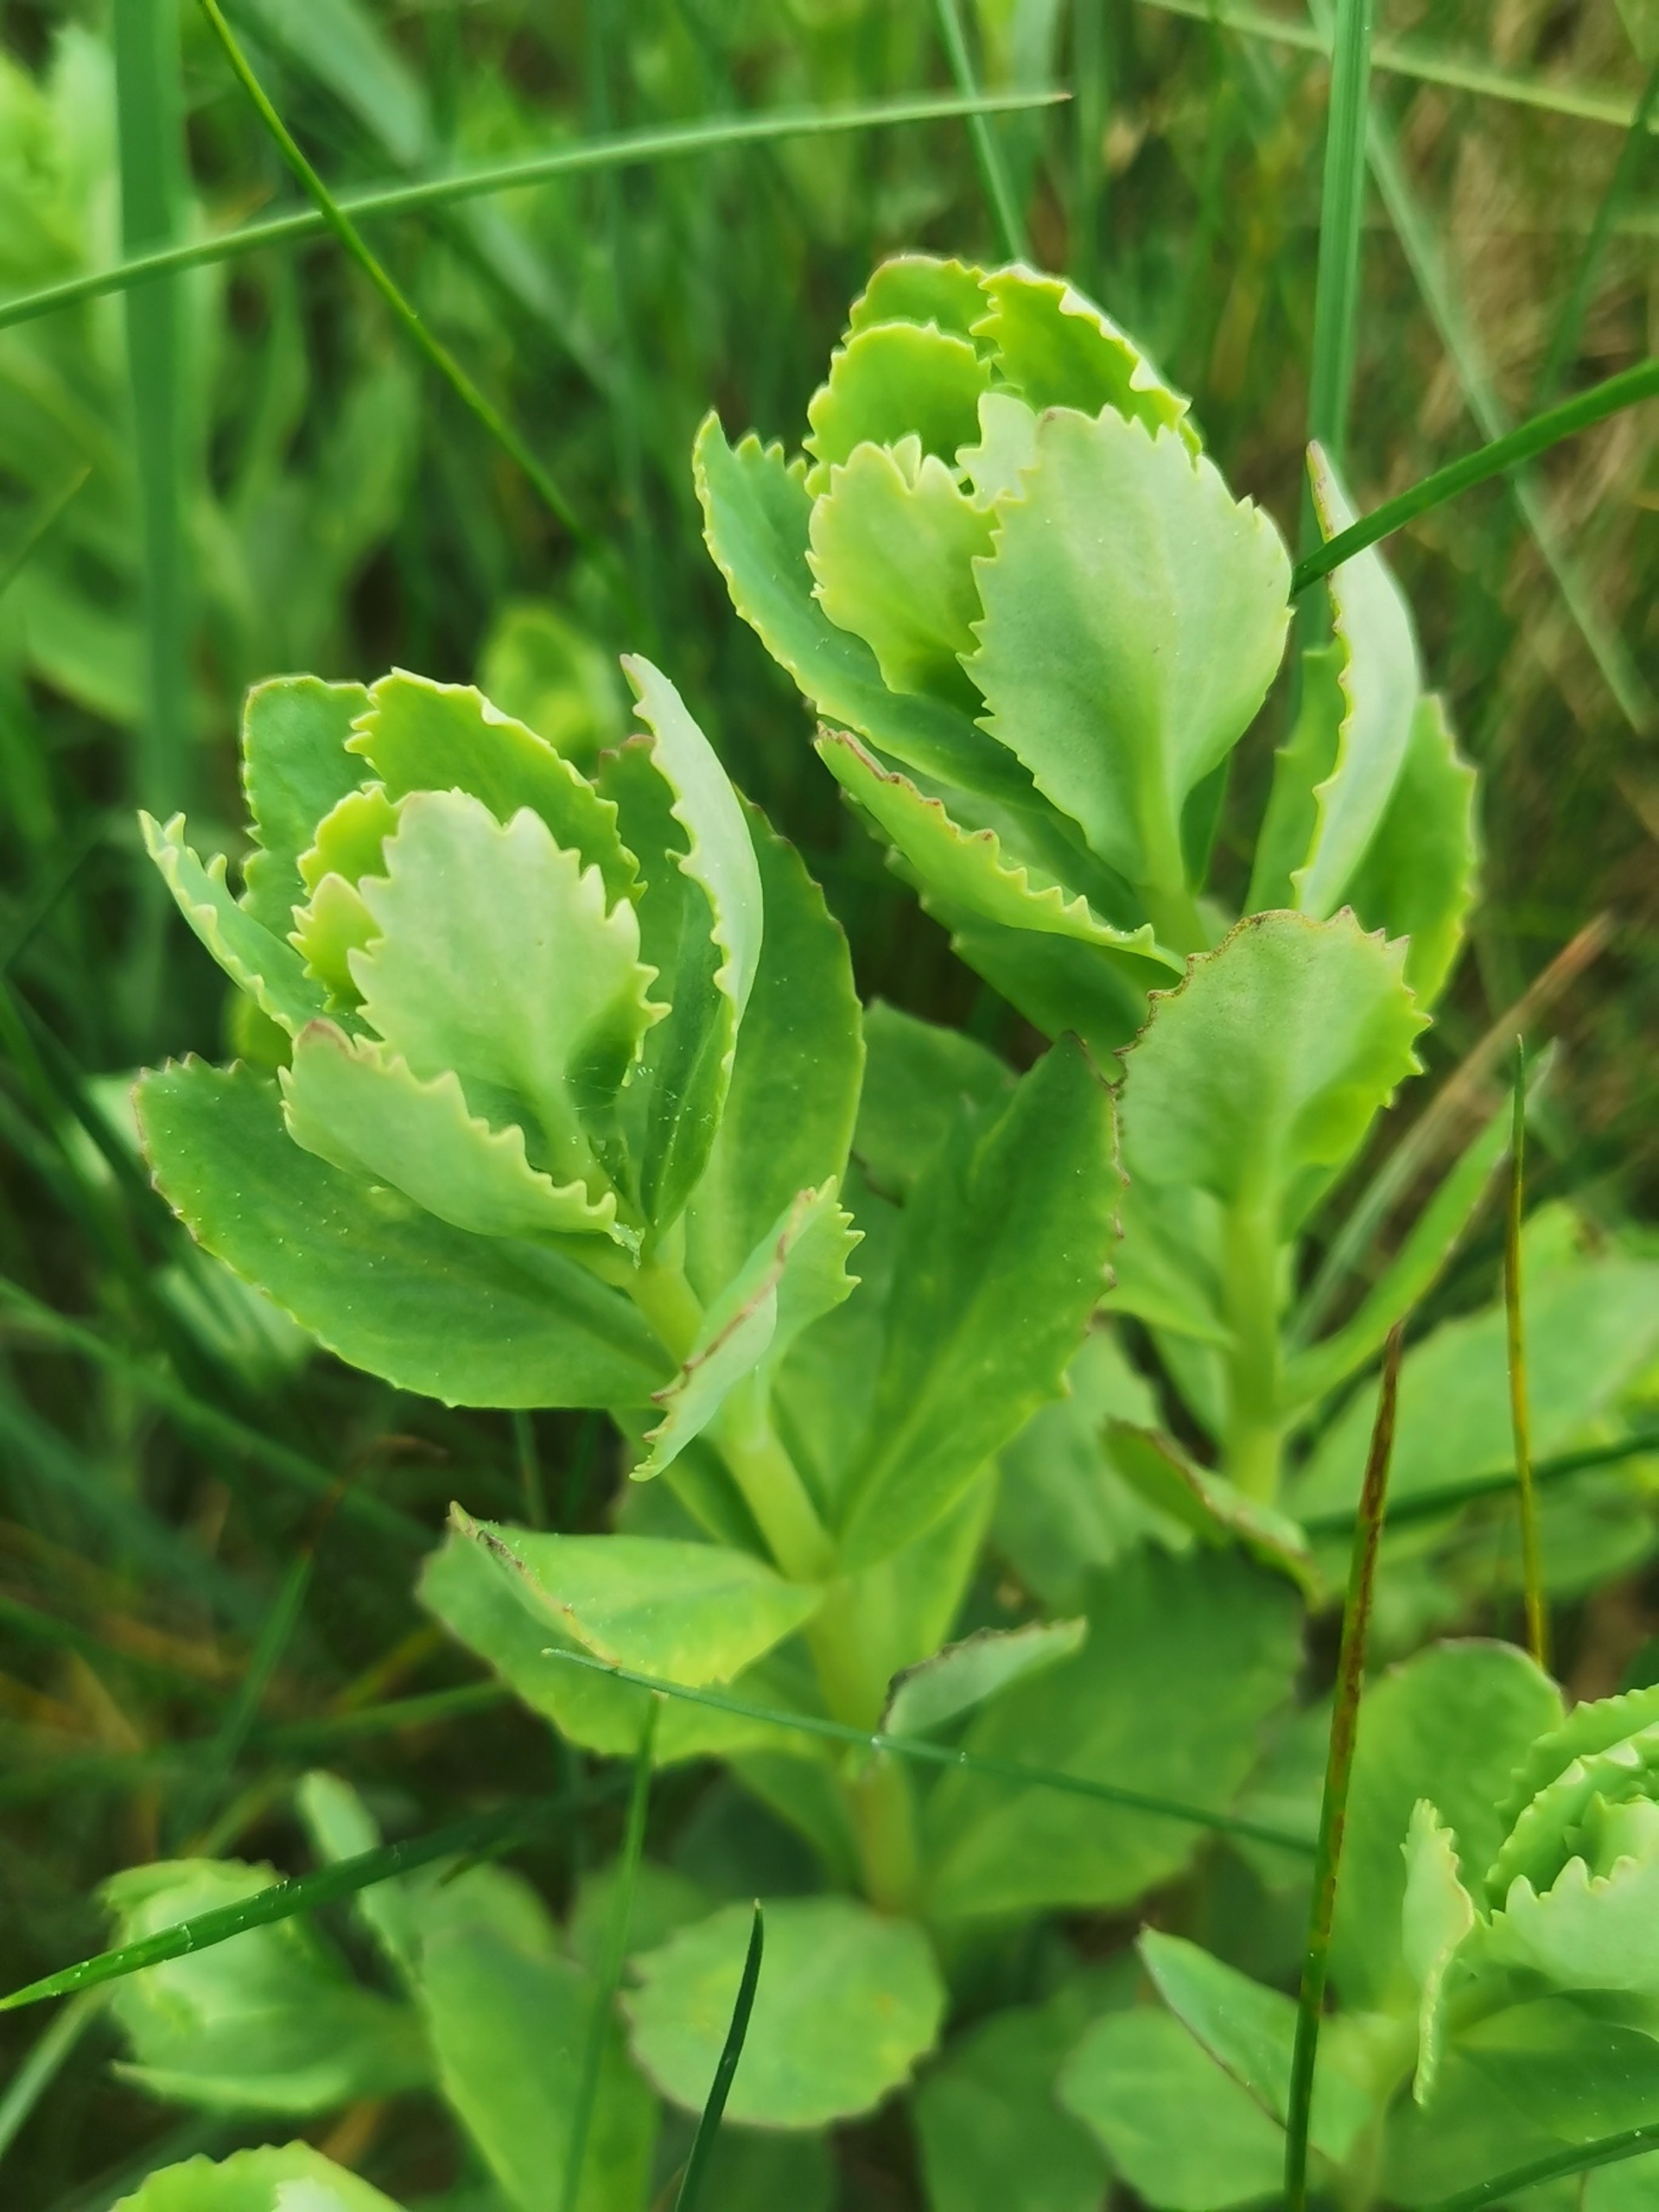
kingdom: Plantae
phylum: Tracheophyta
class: Magnoliopsida
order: Saxifragales
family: Crassulaceae
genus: Hylotelephium
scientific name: Hylotelephium telephium
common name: Sankthansurt
